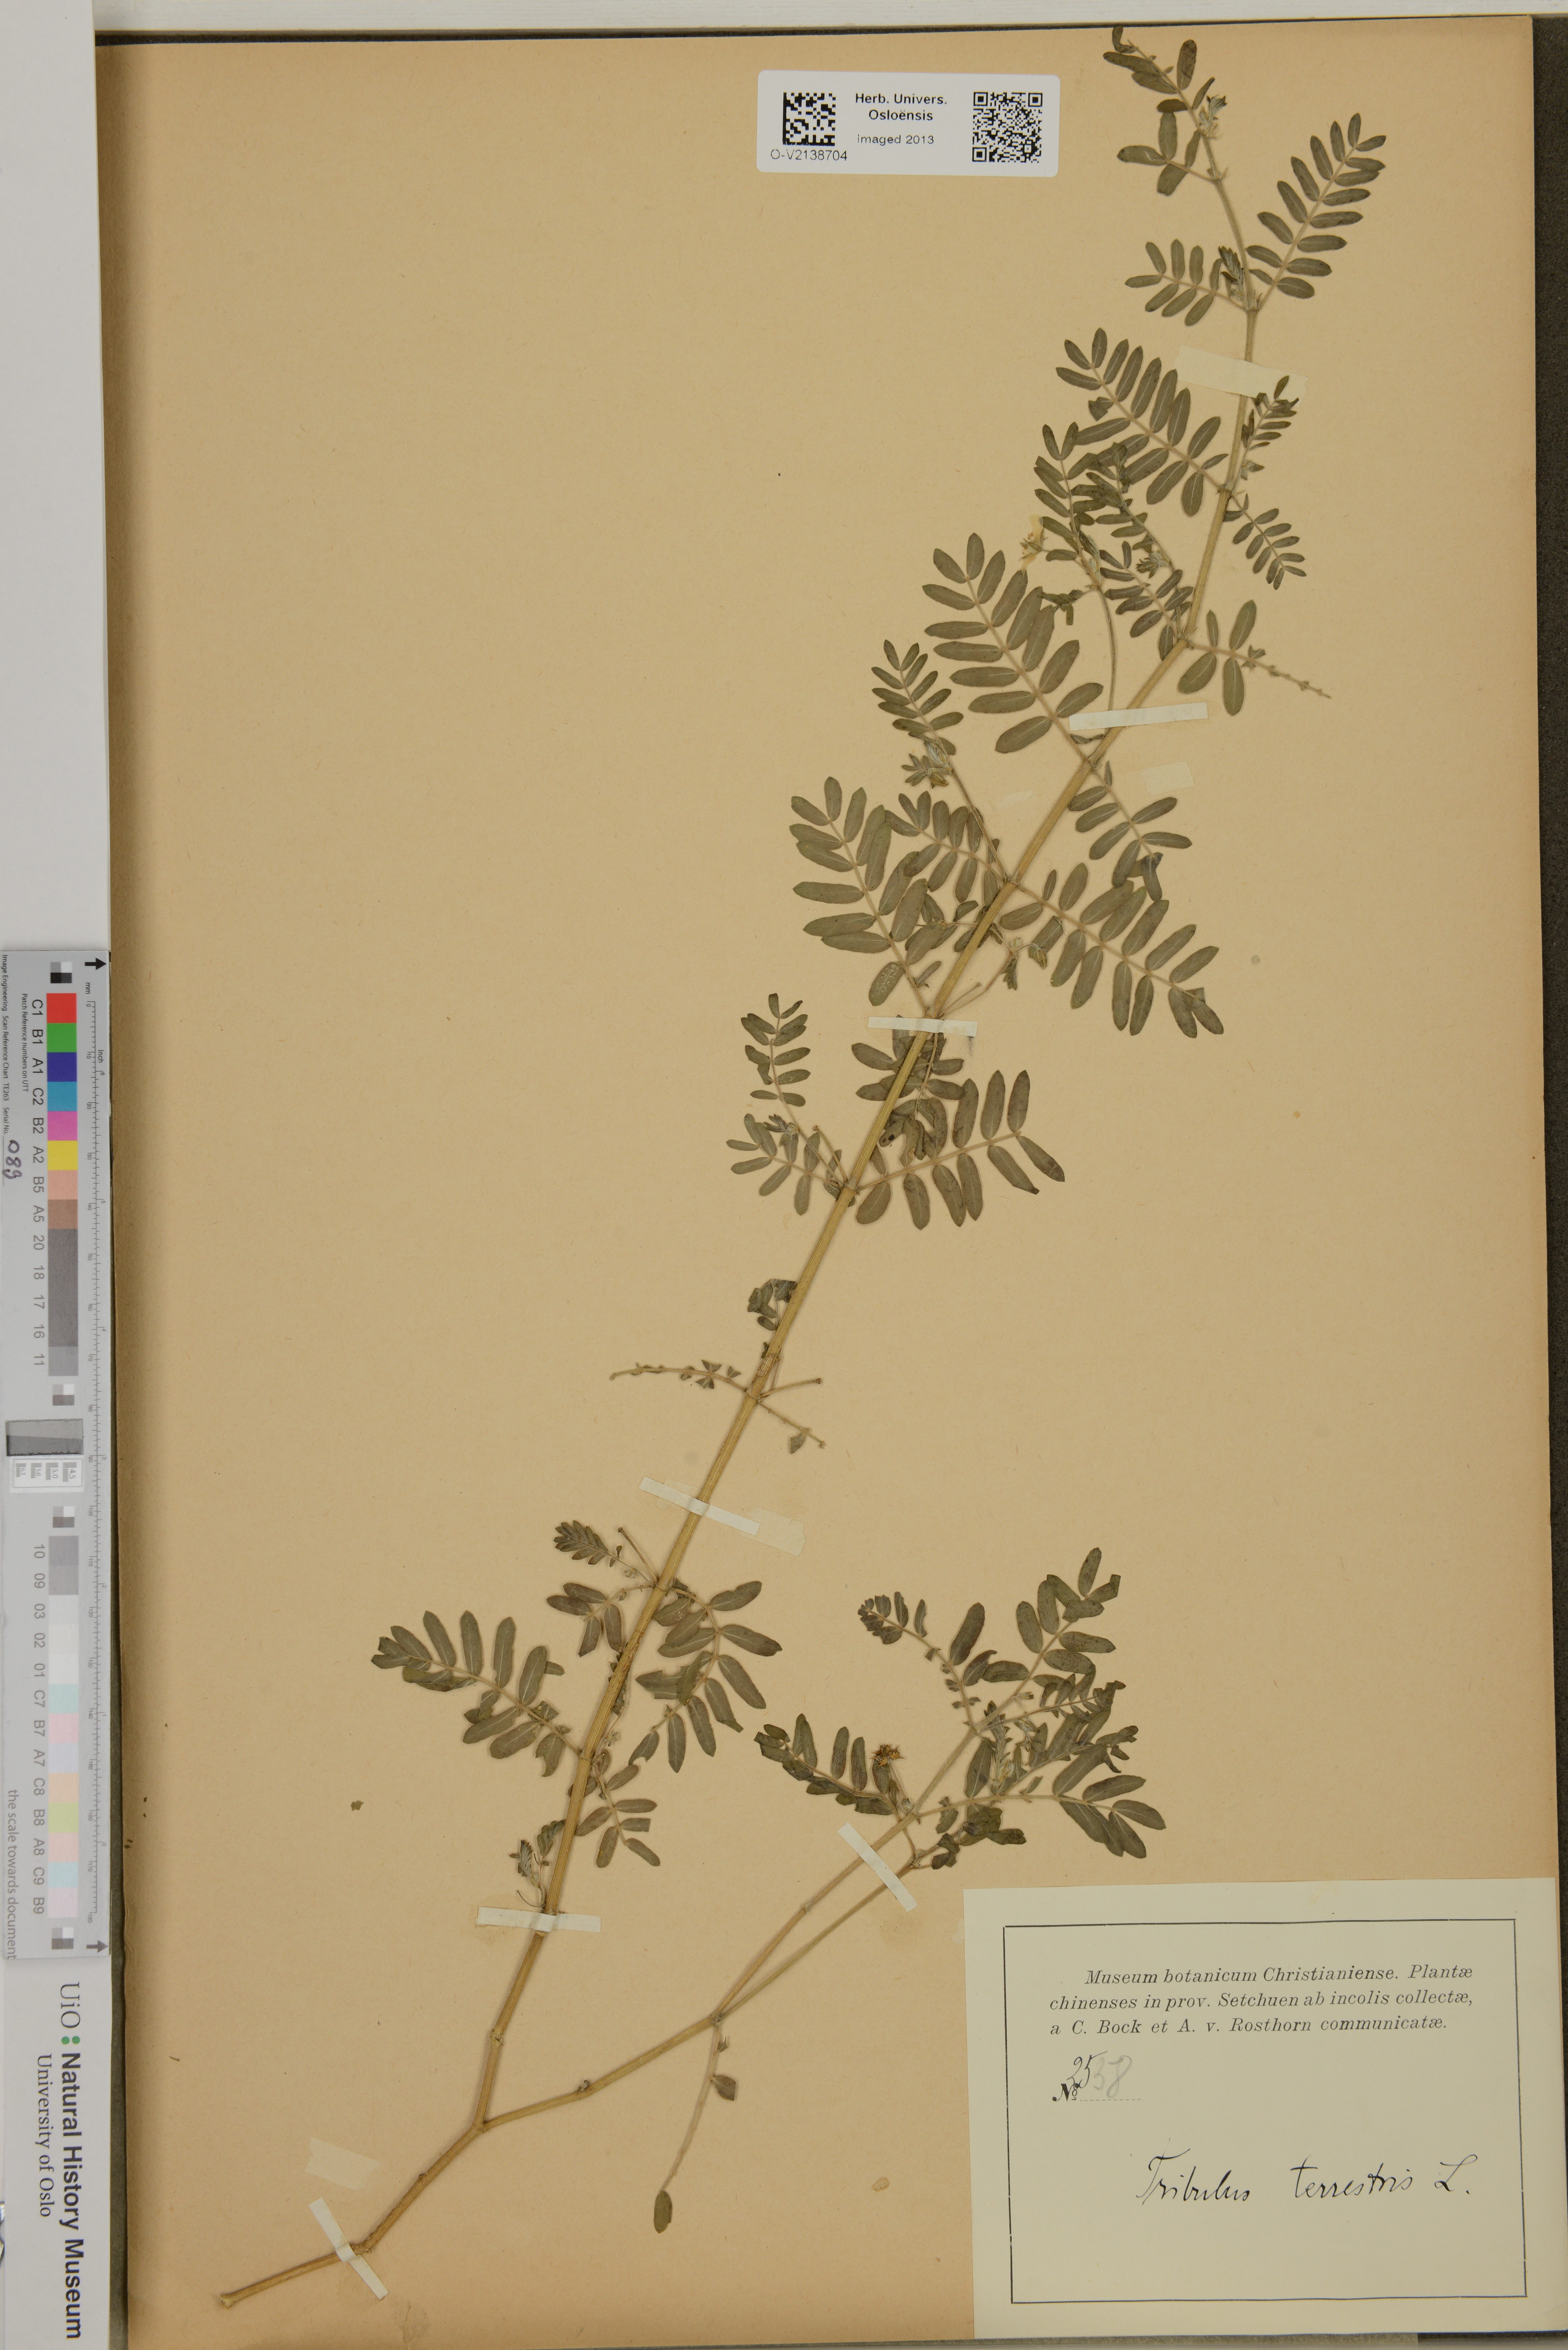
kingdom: Plantae
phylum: Tracheophyta
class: Magnoliopsida
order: Zygophyllales
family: Zygophyllaceae
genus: Tribulus
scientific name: Tribulus terrestris
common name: Puncturevine
